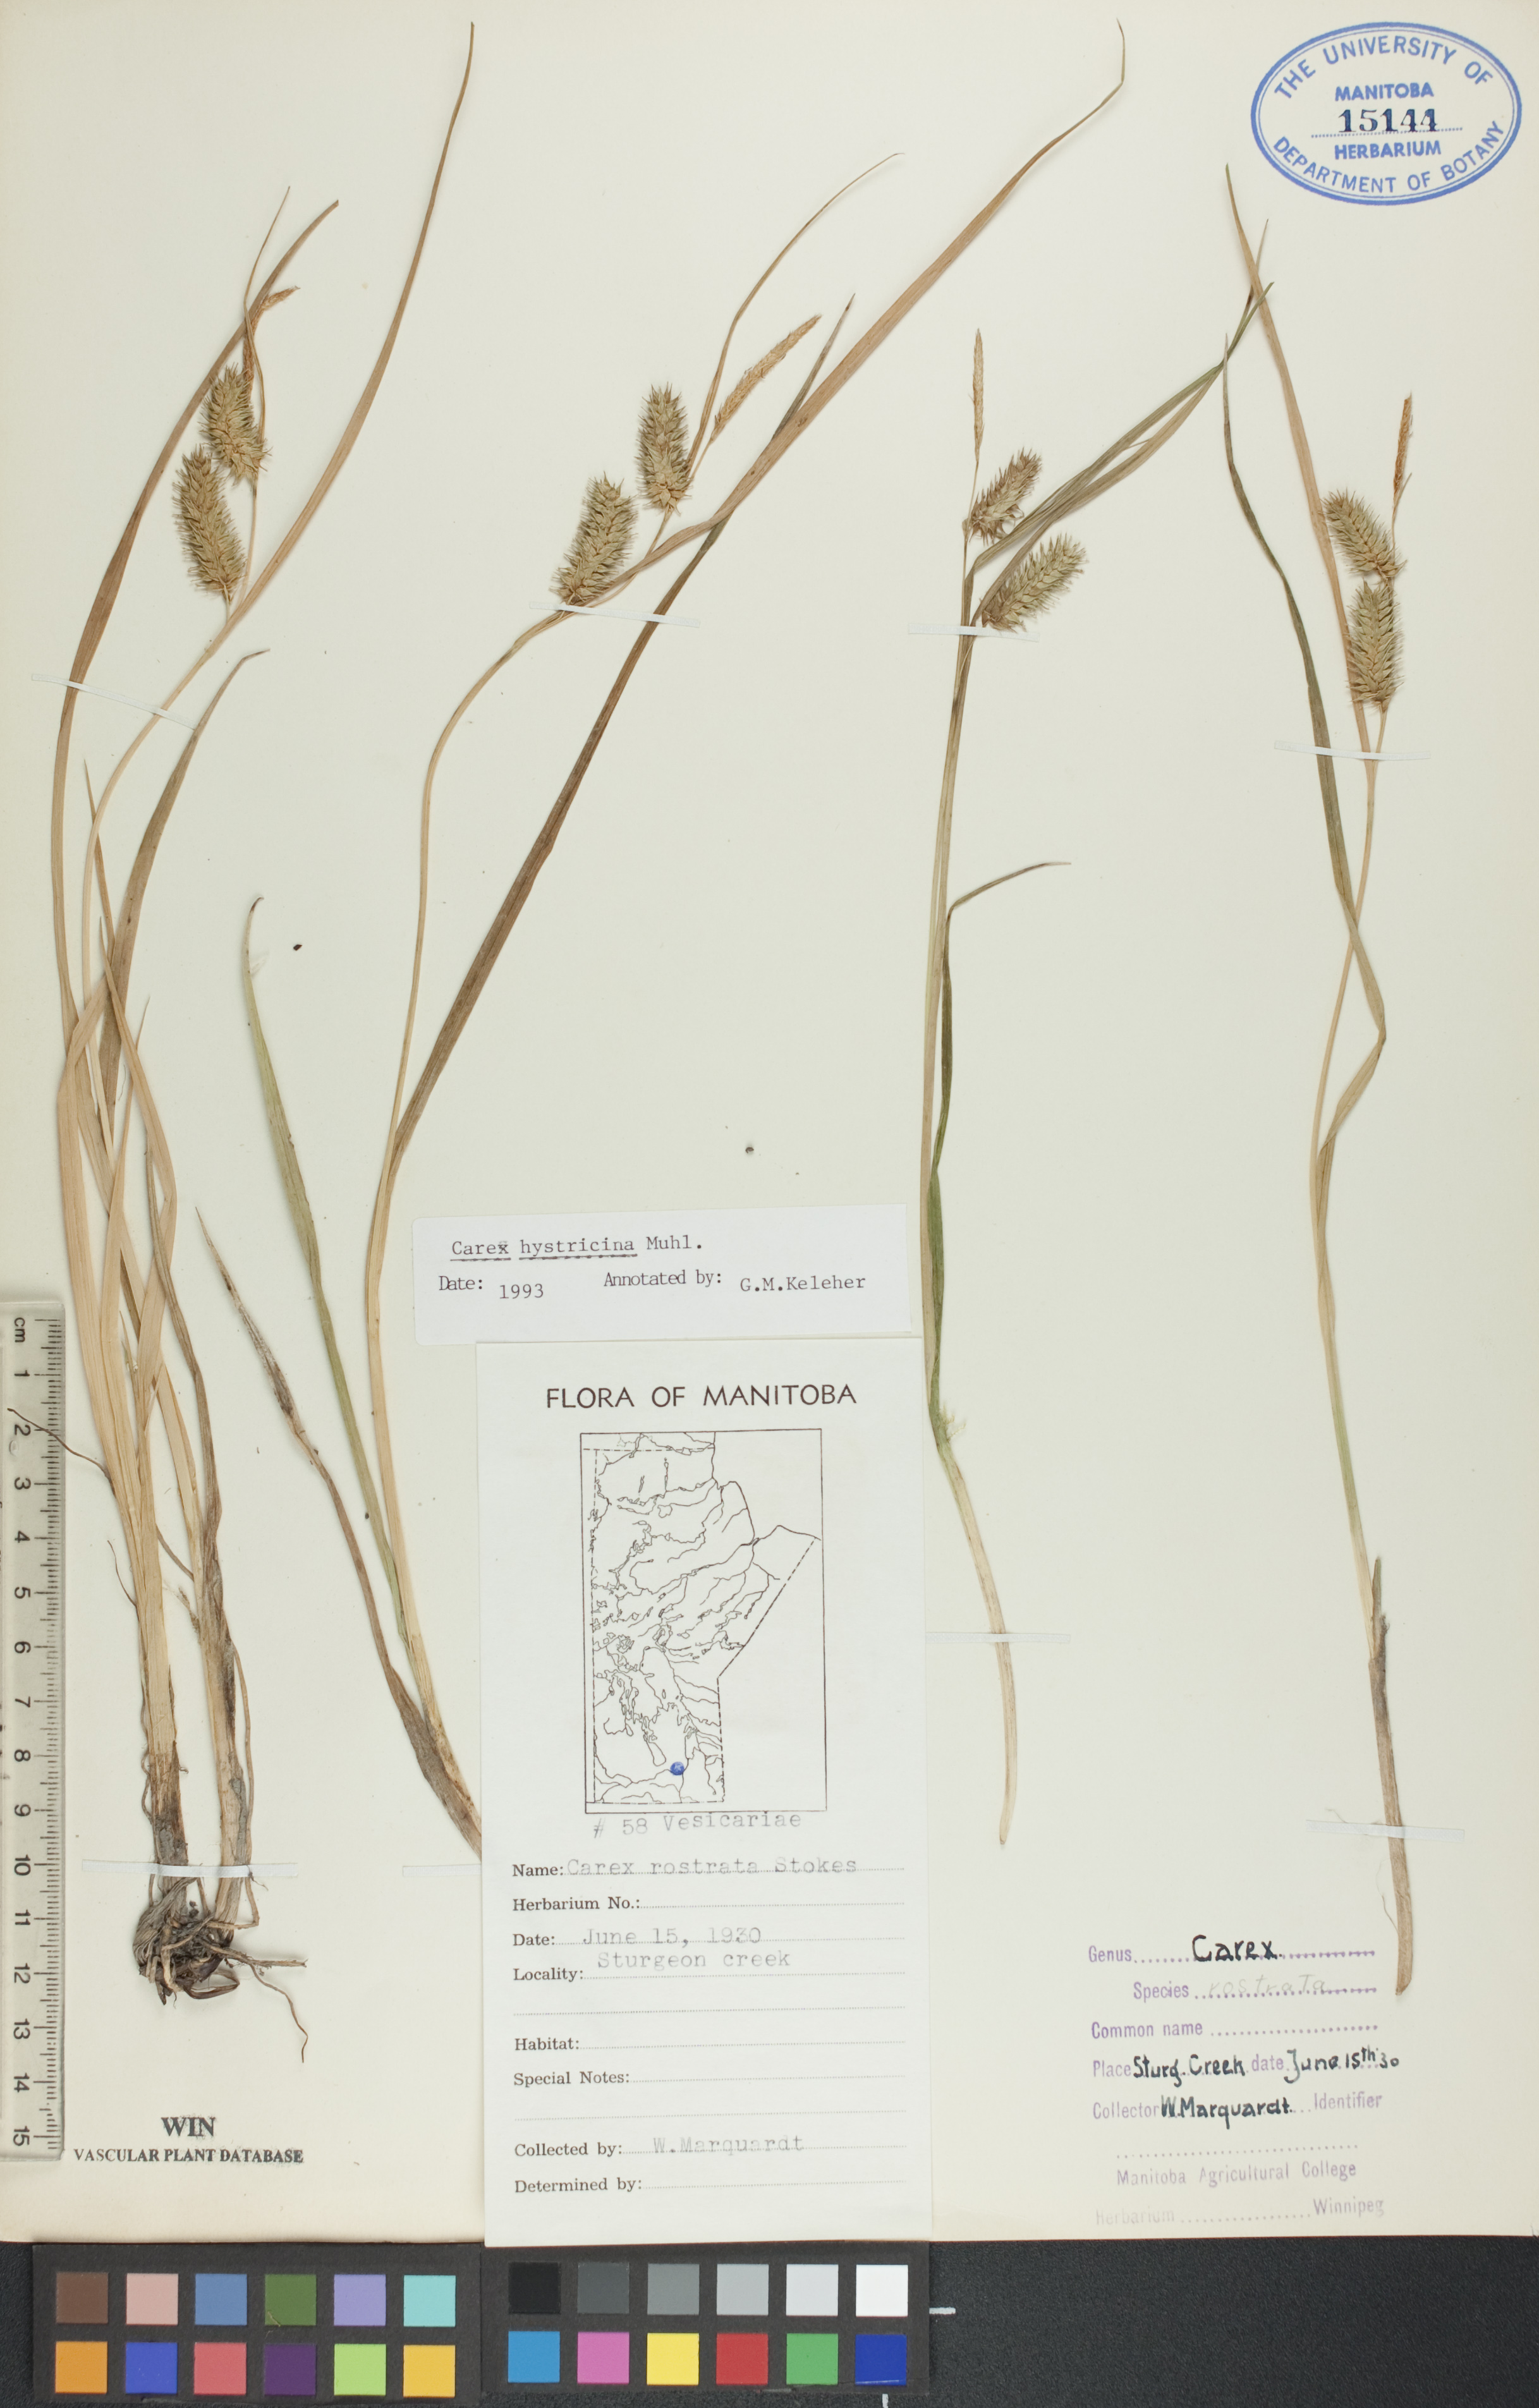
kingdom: Plantae
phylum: Tracheophyta
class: Liliopsida
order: Poales
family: Cyperaceae
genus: Carex
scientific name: Carex hystericina
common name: Bottlebrush sedge
